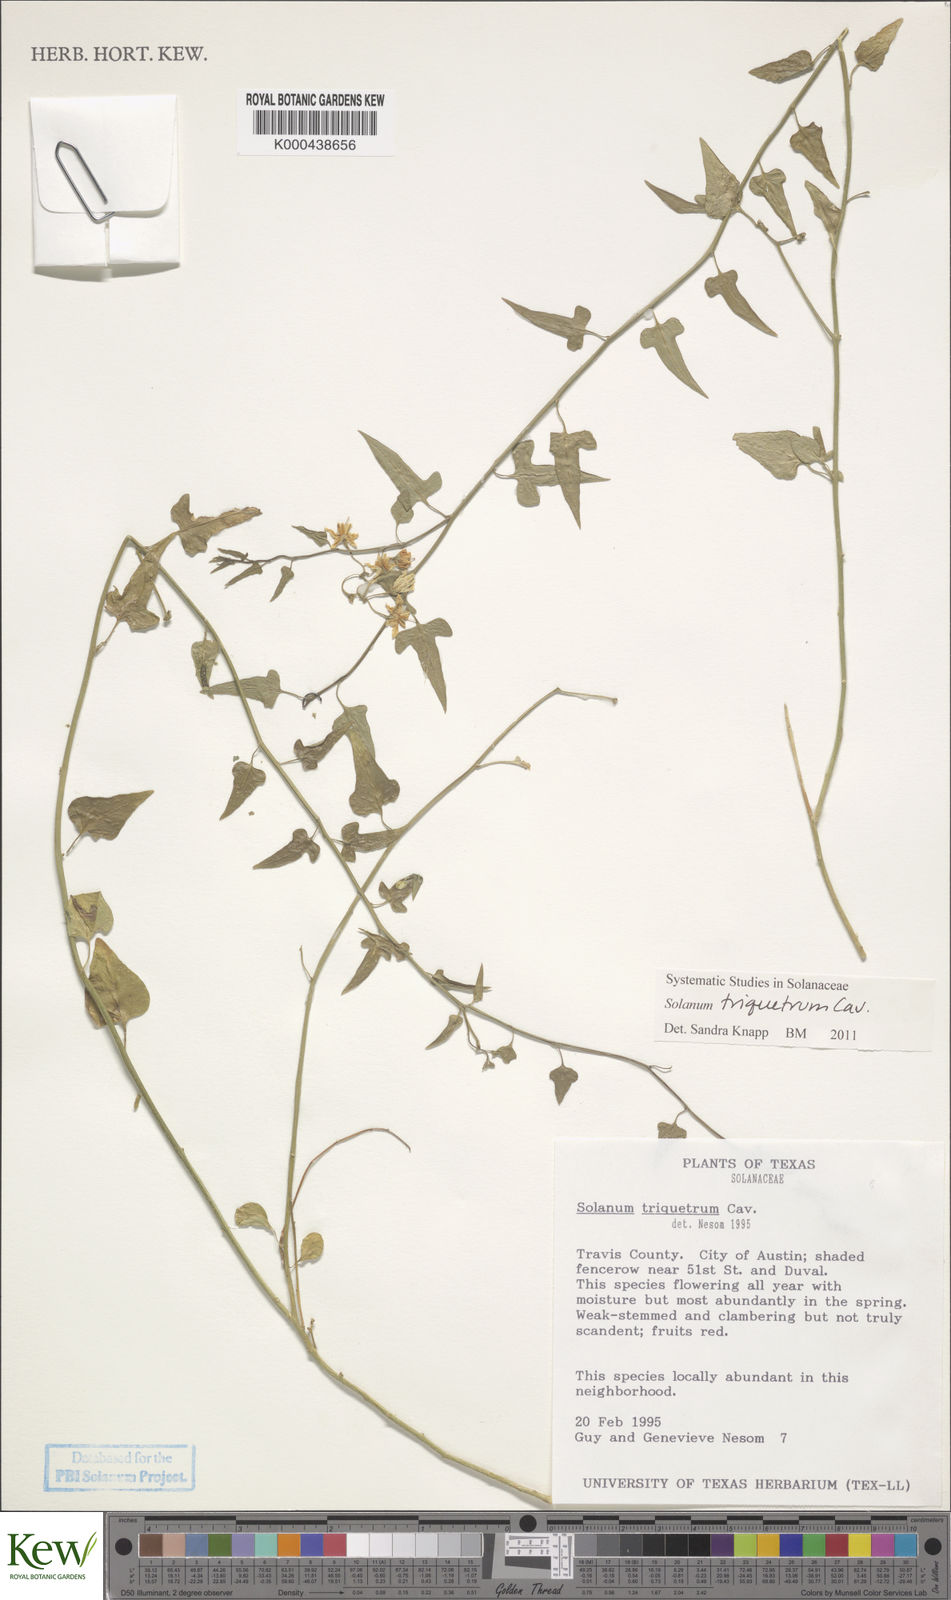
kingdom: Plantae
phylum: Tracheophyta
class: Magnoliopsida
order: Solanales
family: Solanaceae
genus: Solanum
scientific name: Solanum triquetrum
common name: Texas nightshade
